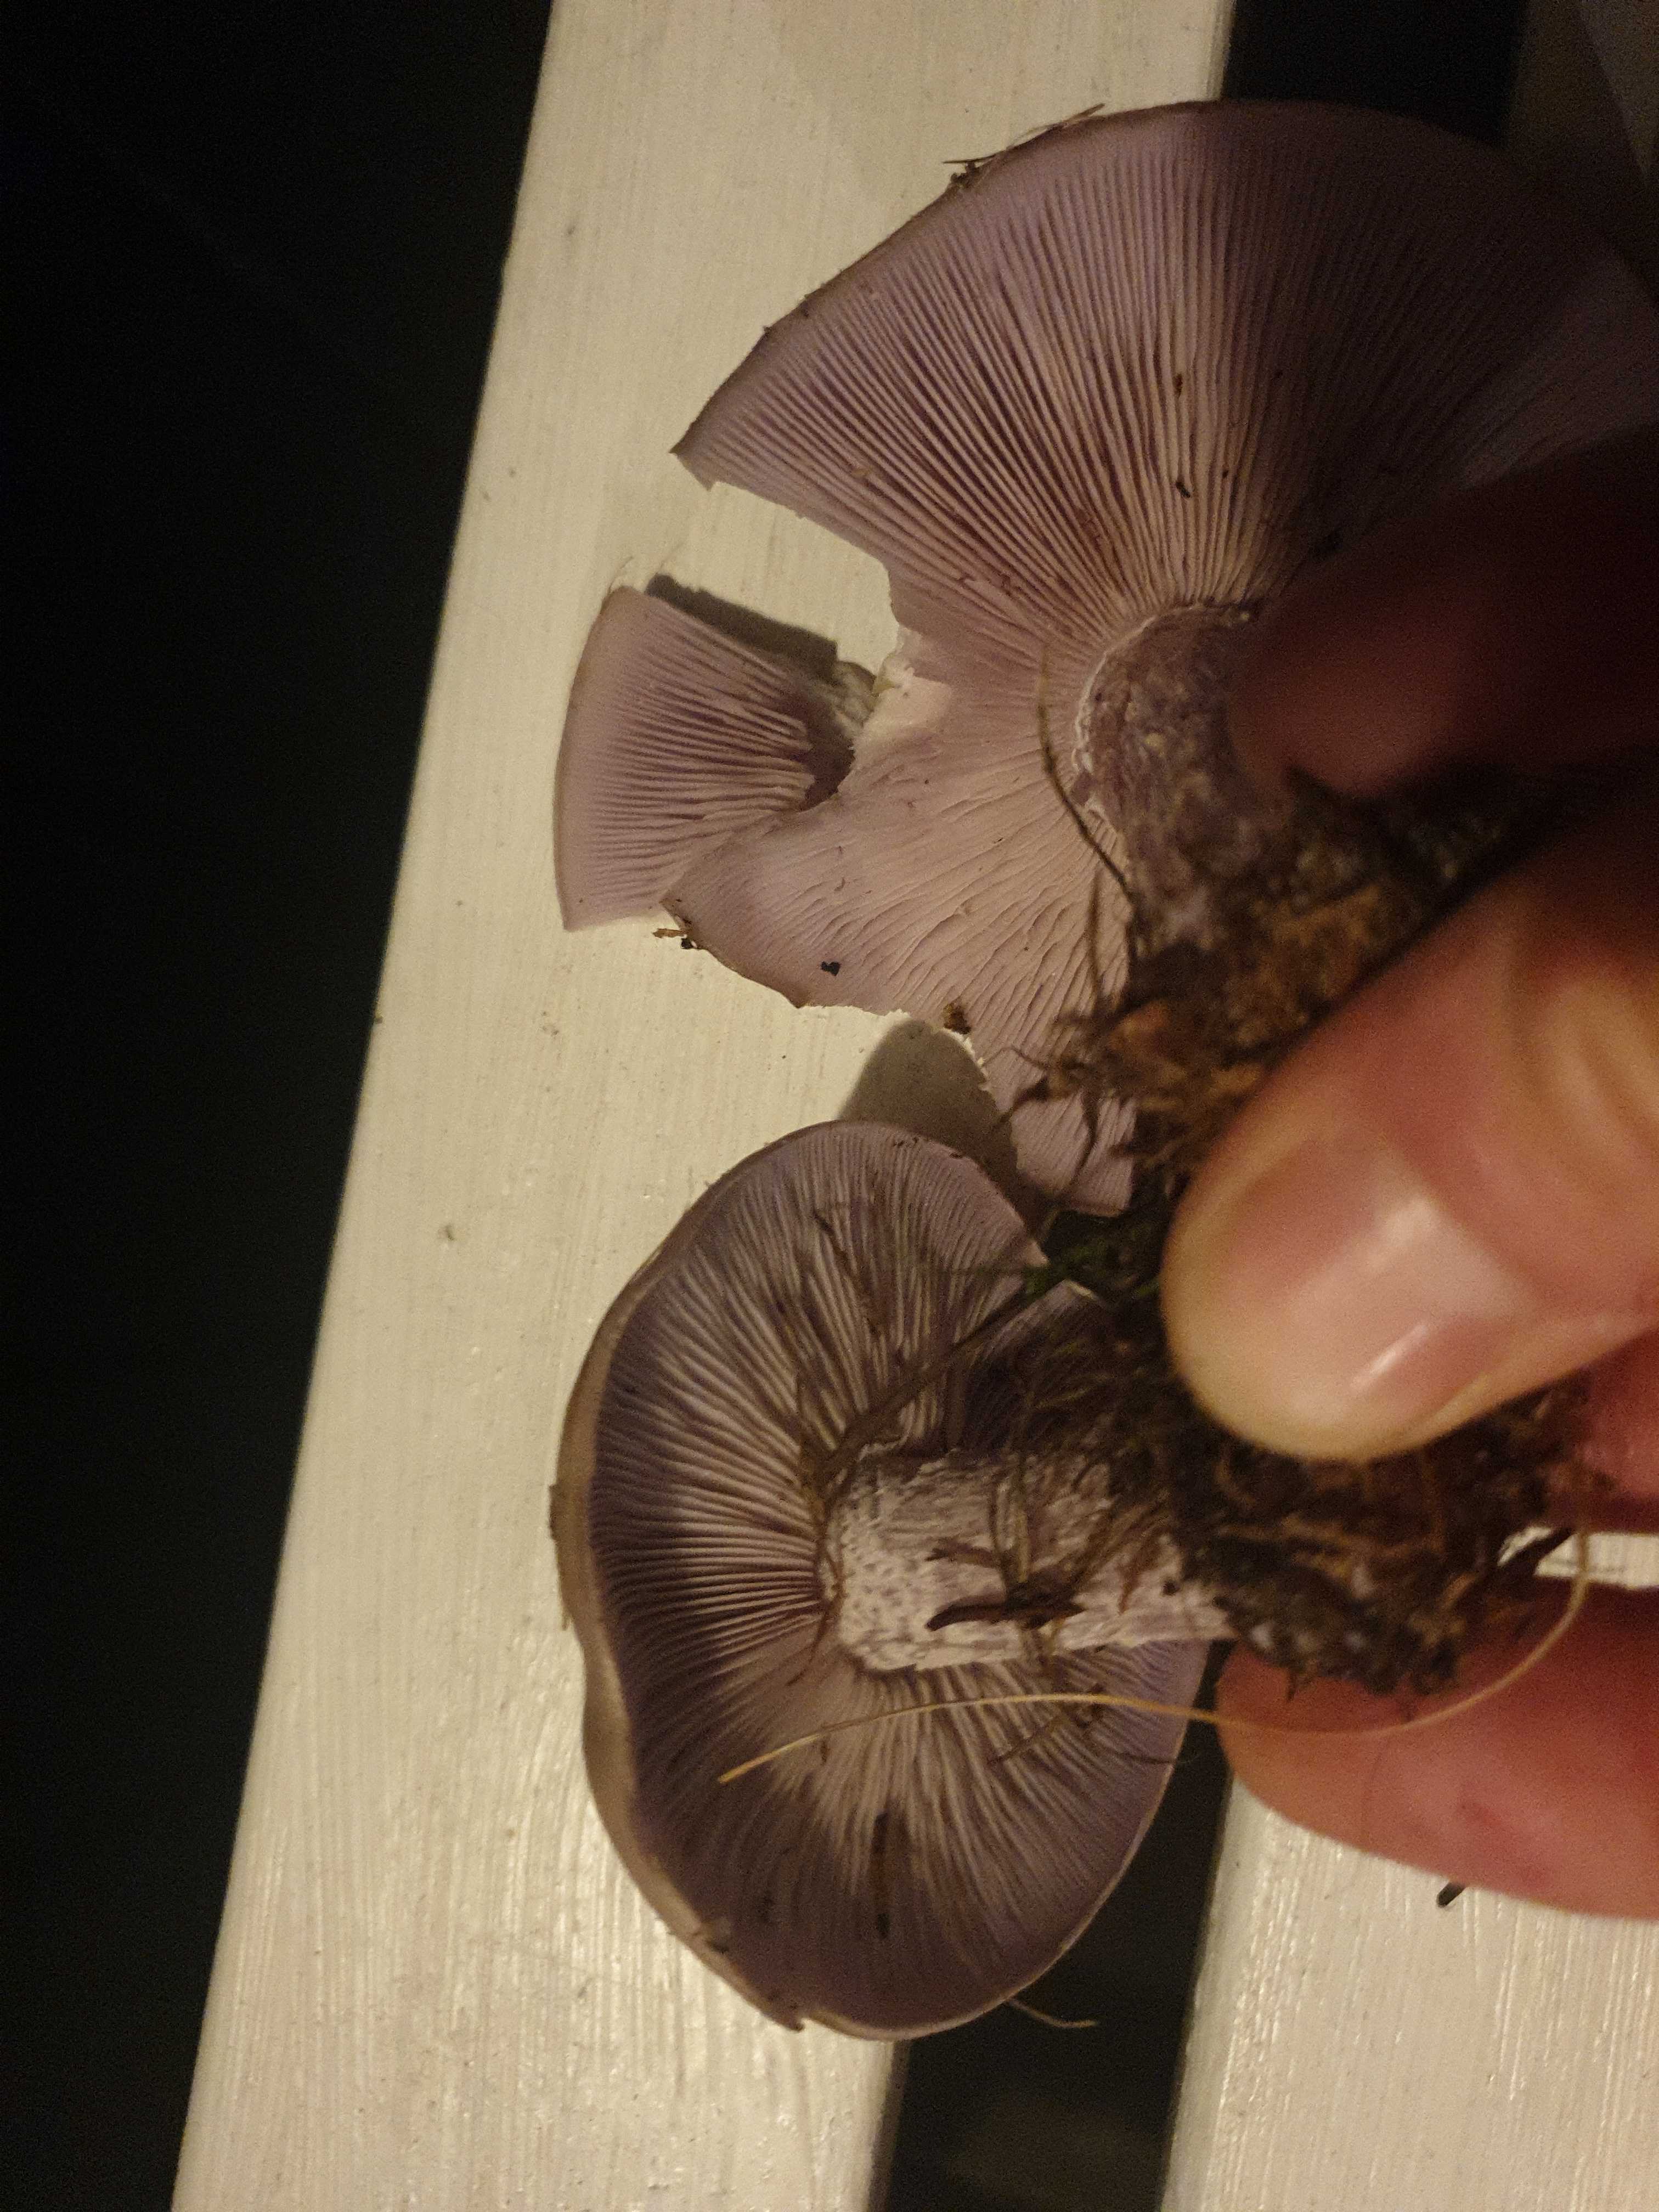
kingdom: Fungi
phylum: Basidiomycota
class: Agaricomycetes
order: Agaricales
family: Tricholomataceae
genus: Lepista
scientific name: Lepista nuda
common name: violet hekseringshat
